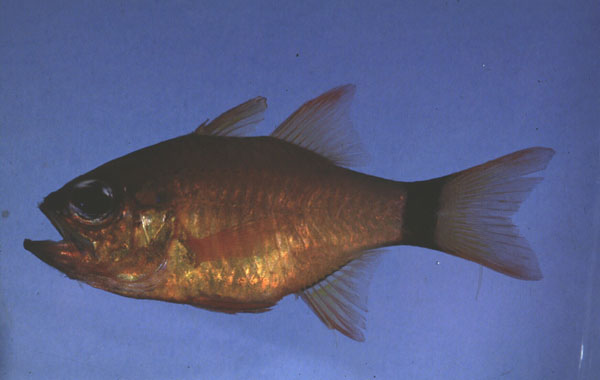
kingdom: Animalia
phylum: Chordata
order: Perciformes
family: Apogonidae
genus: Ostorhinchus
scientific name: Ostorhinchus aureus
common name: Ring-tailed cardinalfish
